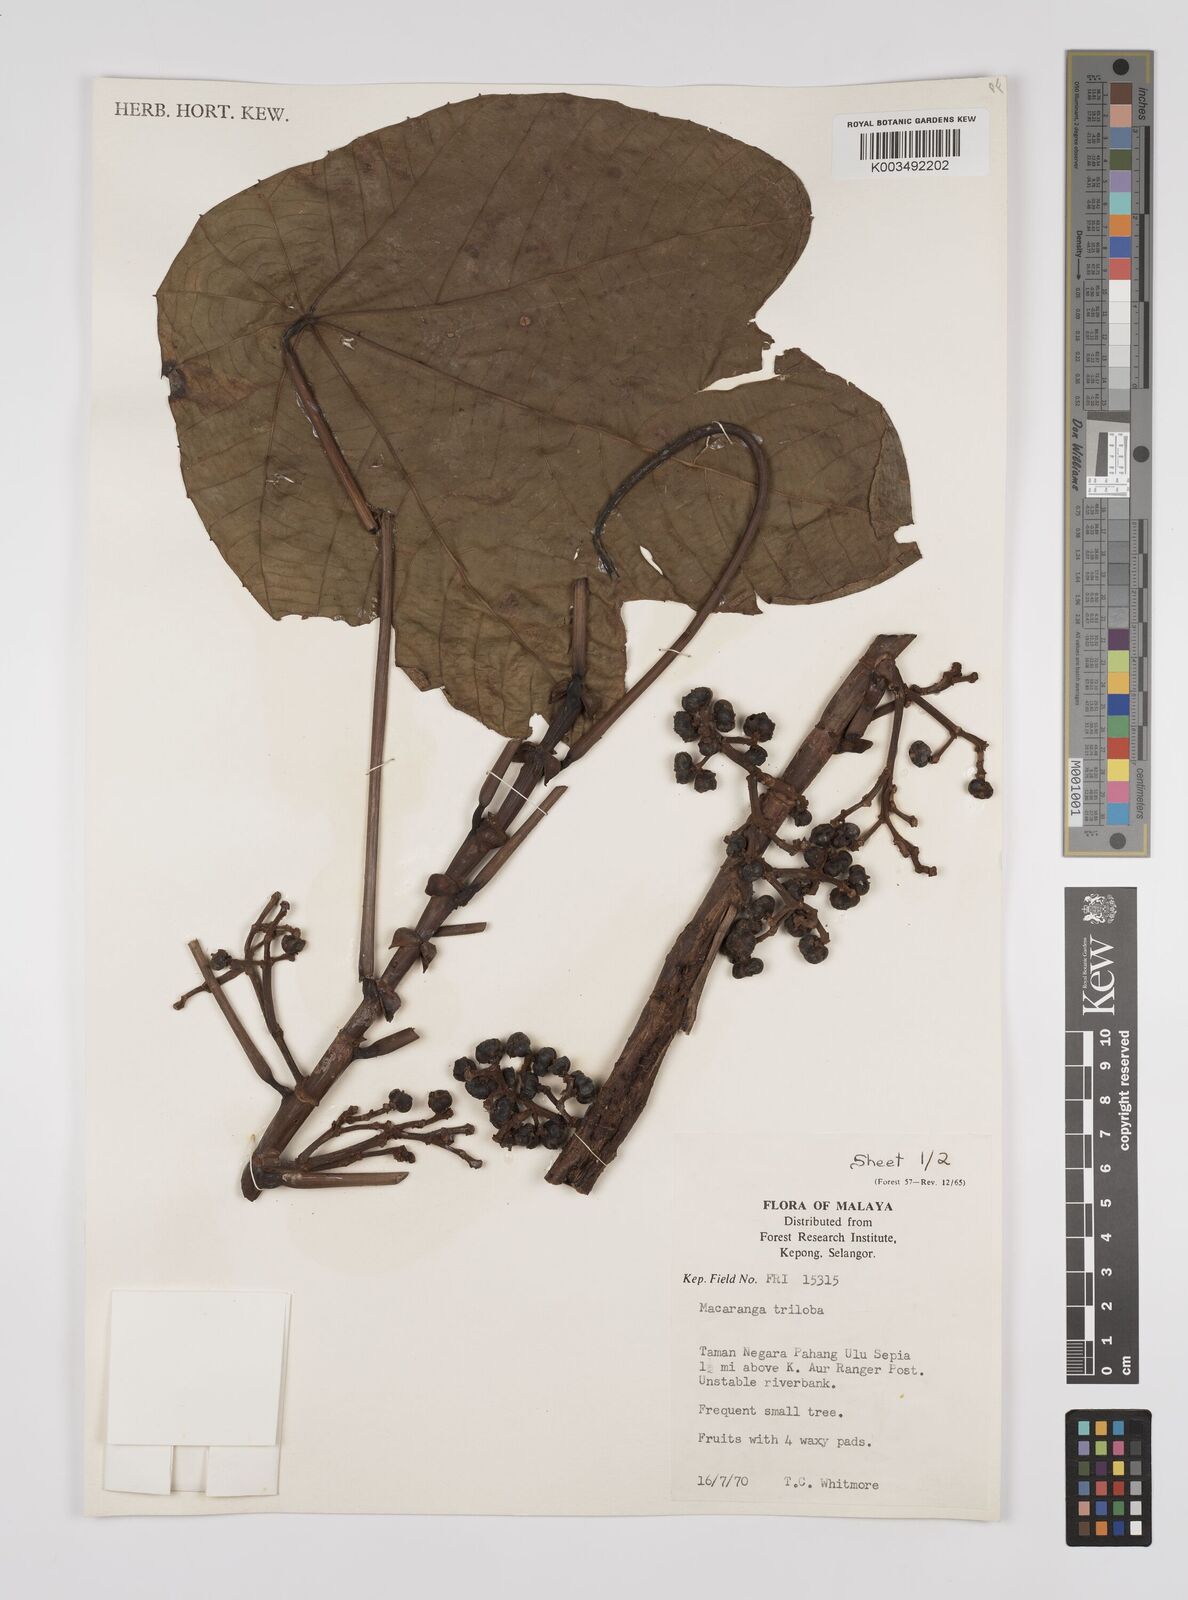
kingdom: Plantae
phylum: Tracheophyta
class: Magnoliopsida
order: Malpighiales
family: Euphorbiaceae
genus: Macaranga
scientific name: Macaranga triloba
